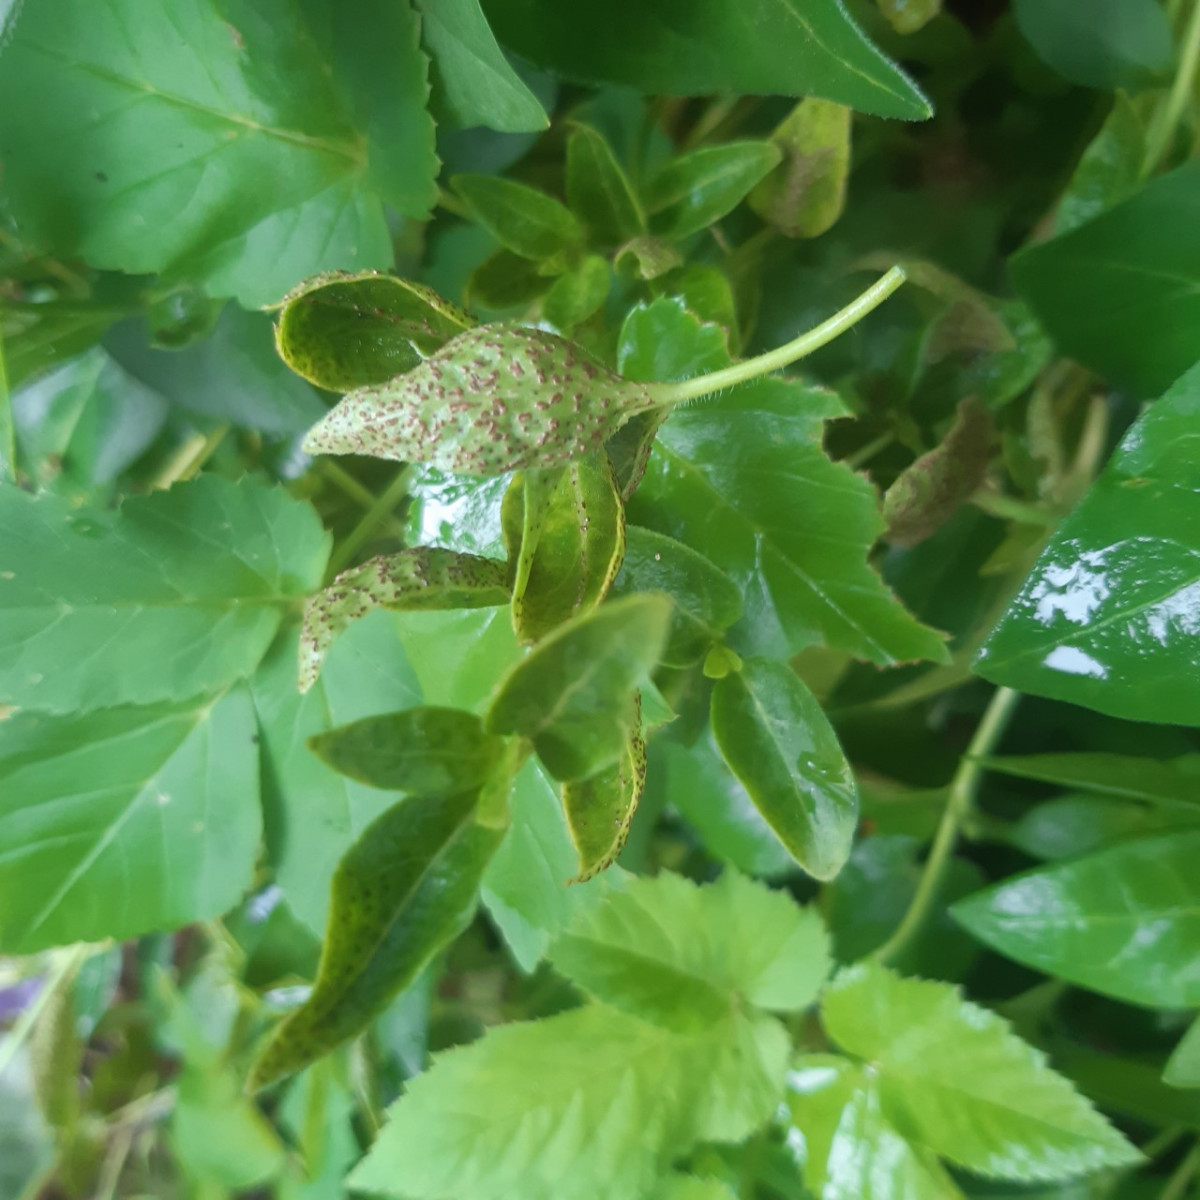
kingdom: Fungi
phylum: Basidiomycota
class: Pucciniomycetes
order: Pucciniales
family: Pucciniaceae
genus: Puccinia
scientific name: Puccinia vincae
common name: Periwinkle rust
